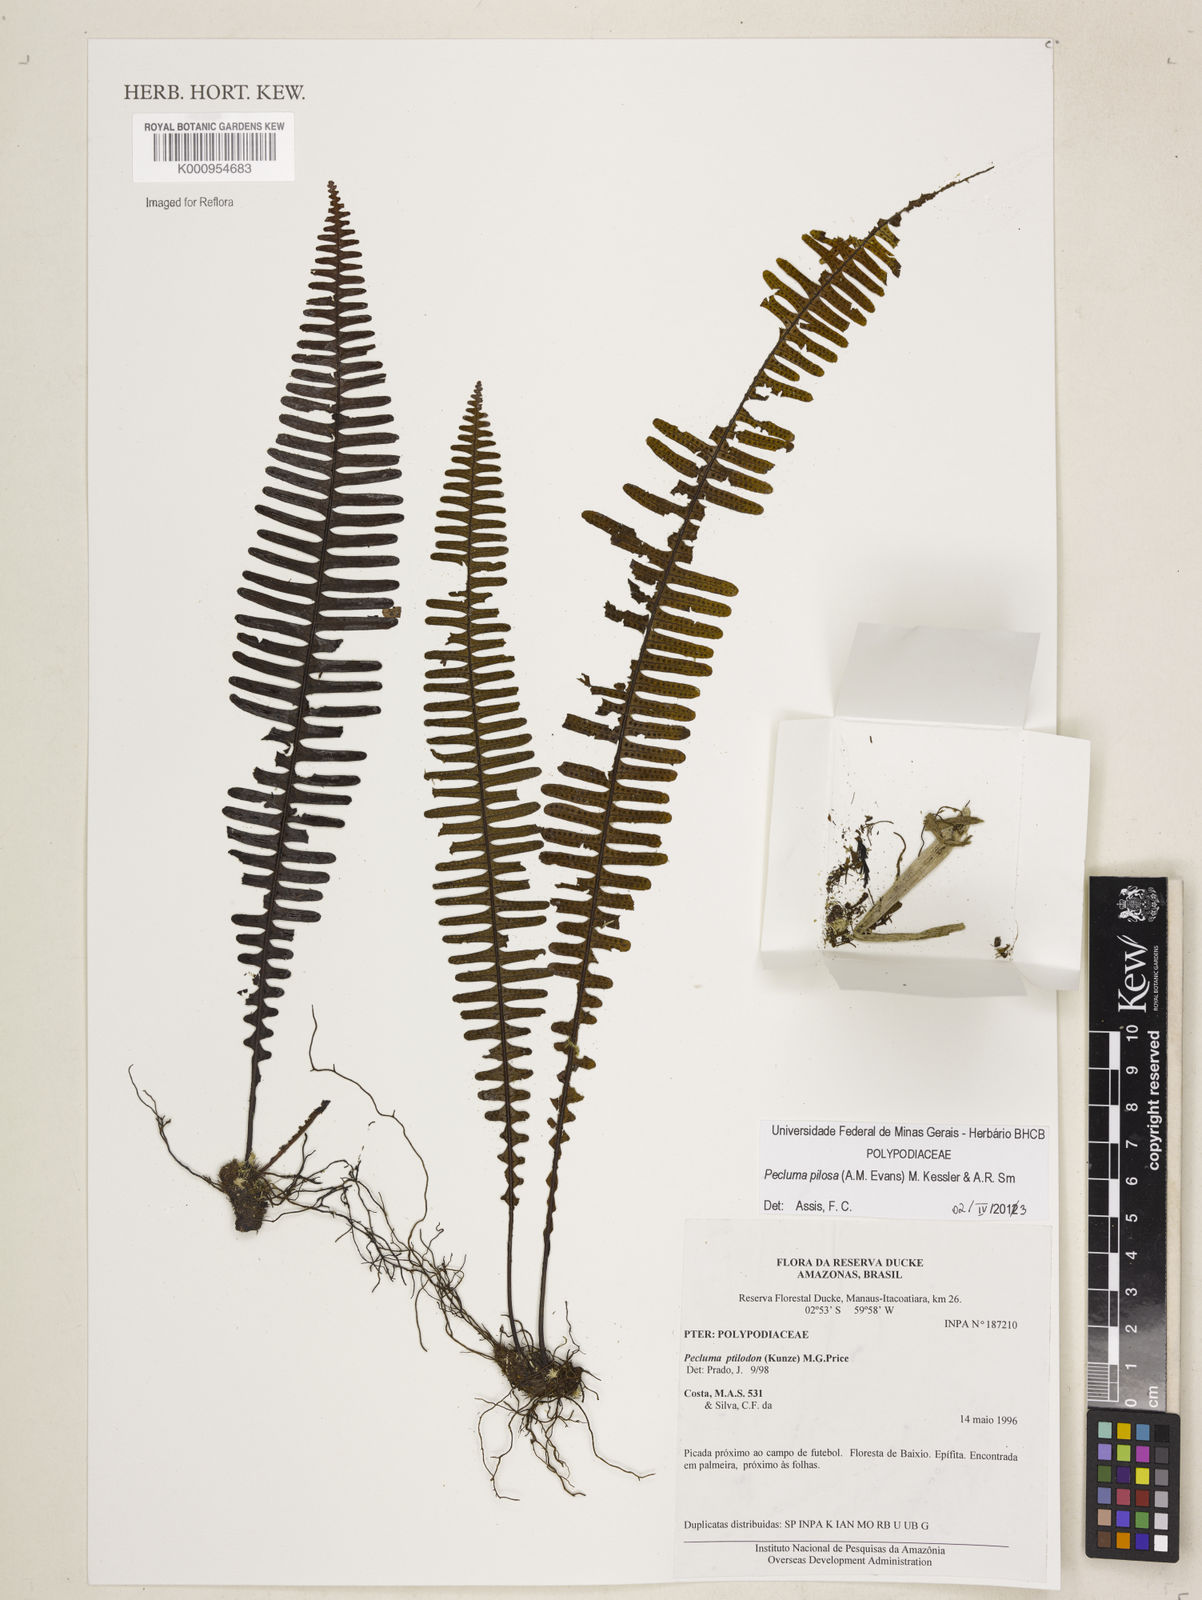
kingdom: Plantae
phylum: Tracheophyta
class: Polypodiopsida
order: Polypodiales
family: Polypodiaceae
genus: Pecluma
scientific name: Pecluma pilosa
